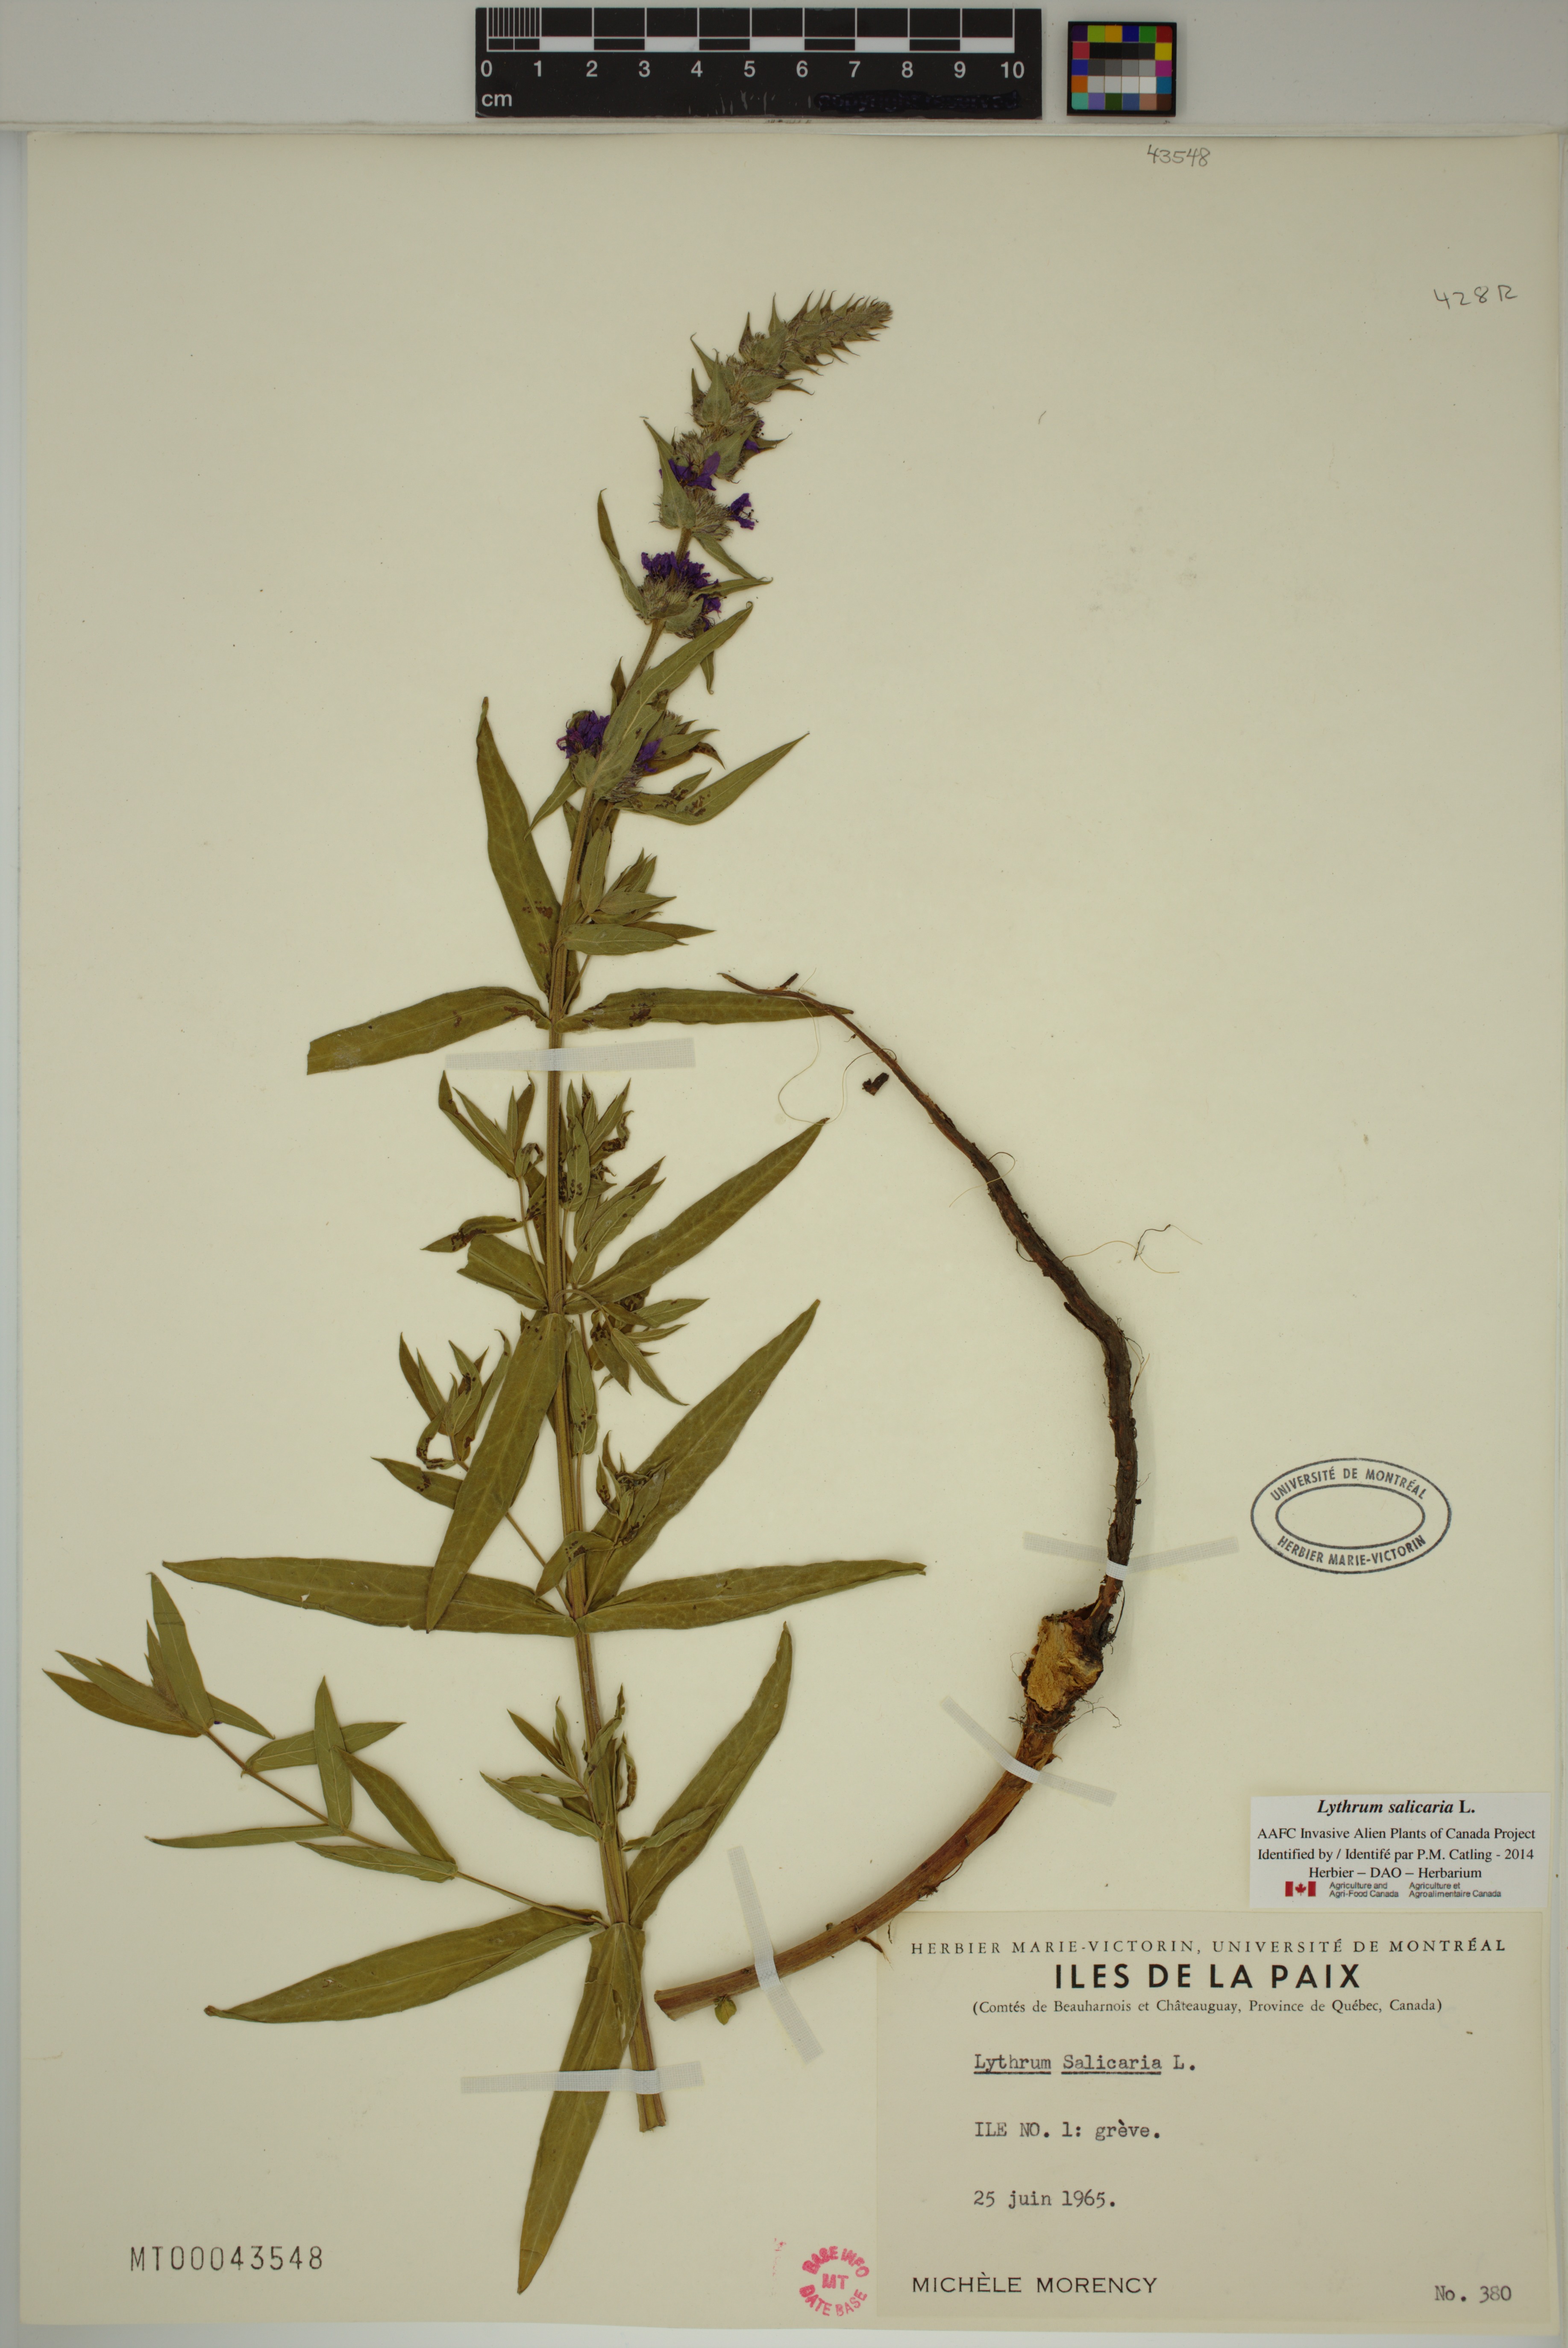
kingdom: Plantae
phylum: Tracheophyta
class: Magnoliopsida
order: Myrtales
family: Lythraceae
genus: Lythrum
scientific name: Lythrum salicaria
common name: Purple loosestrife
